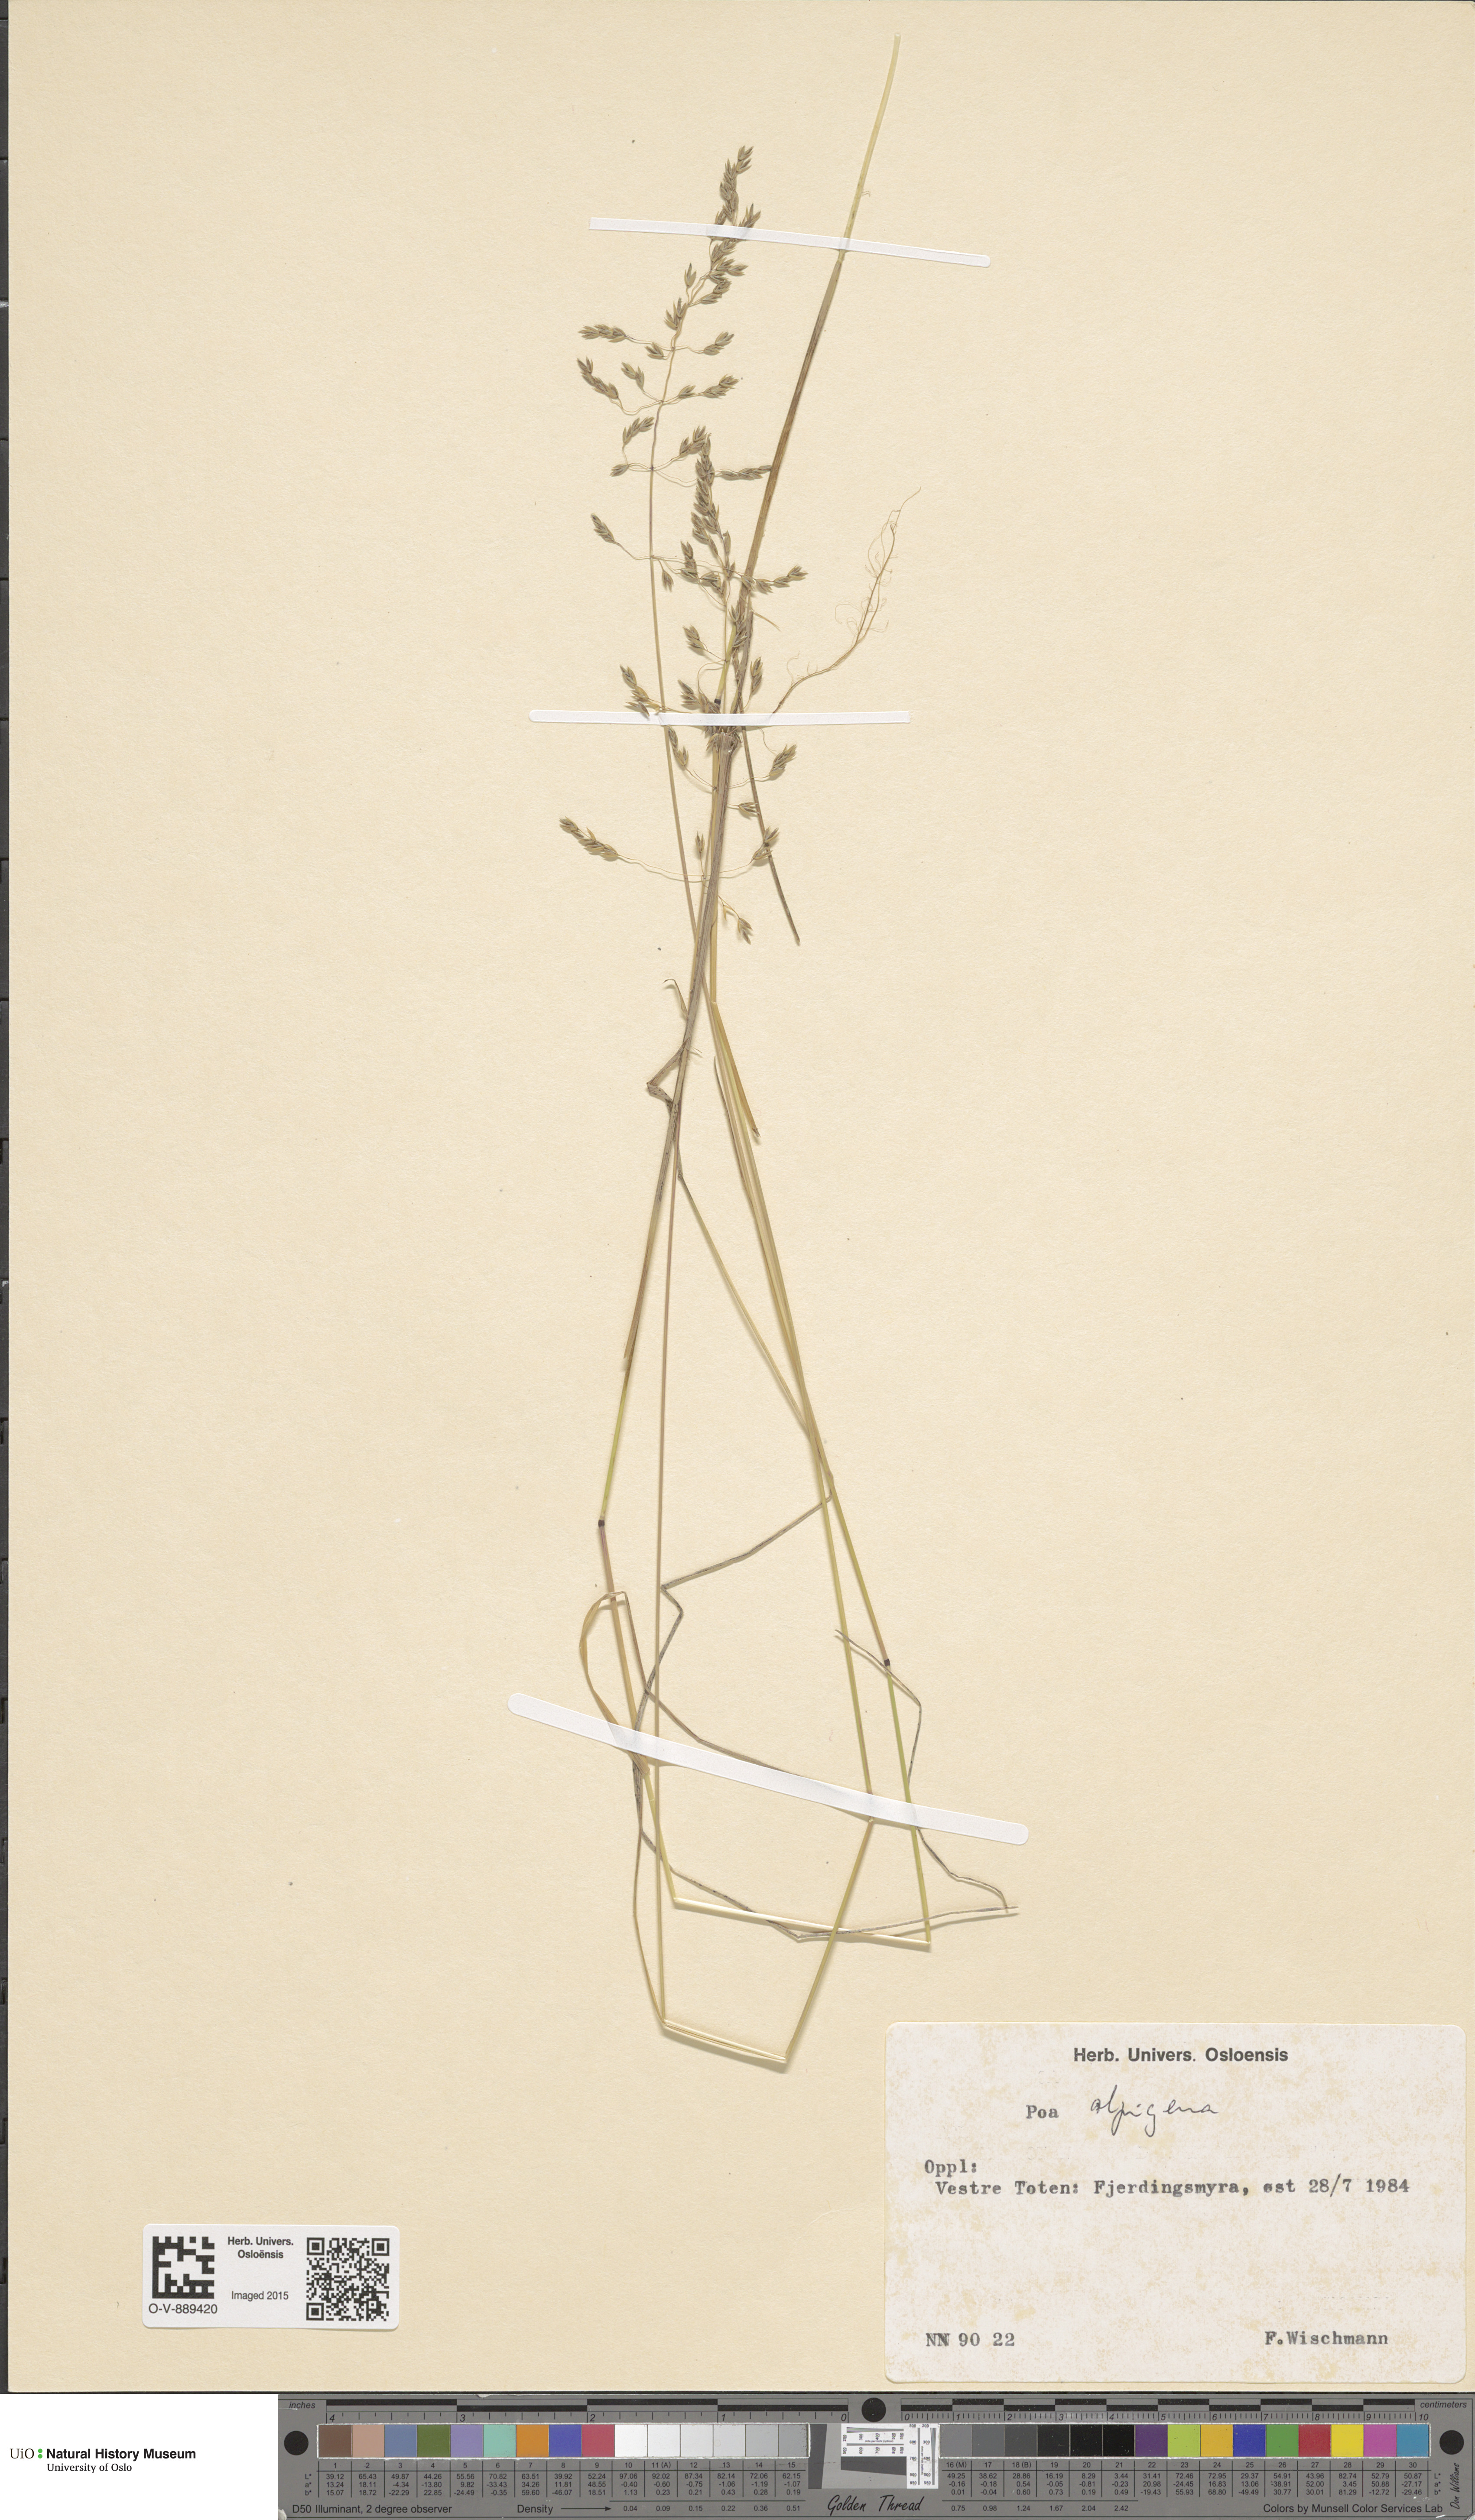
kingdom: Plantae
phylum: Tracheophyta
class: Liliopsida
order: Poales
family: Poaceae
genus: Poa
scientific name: Poa alpigena
